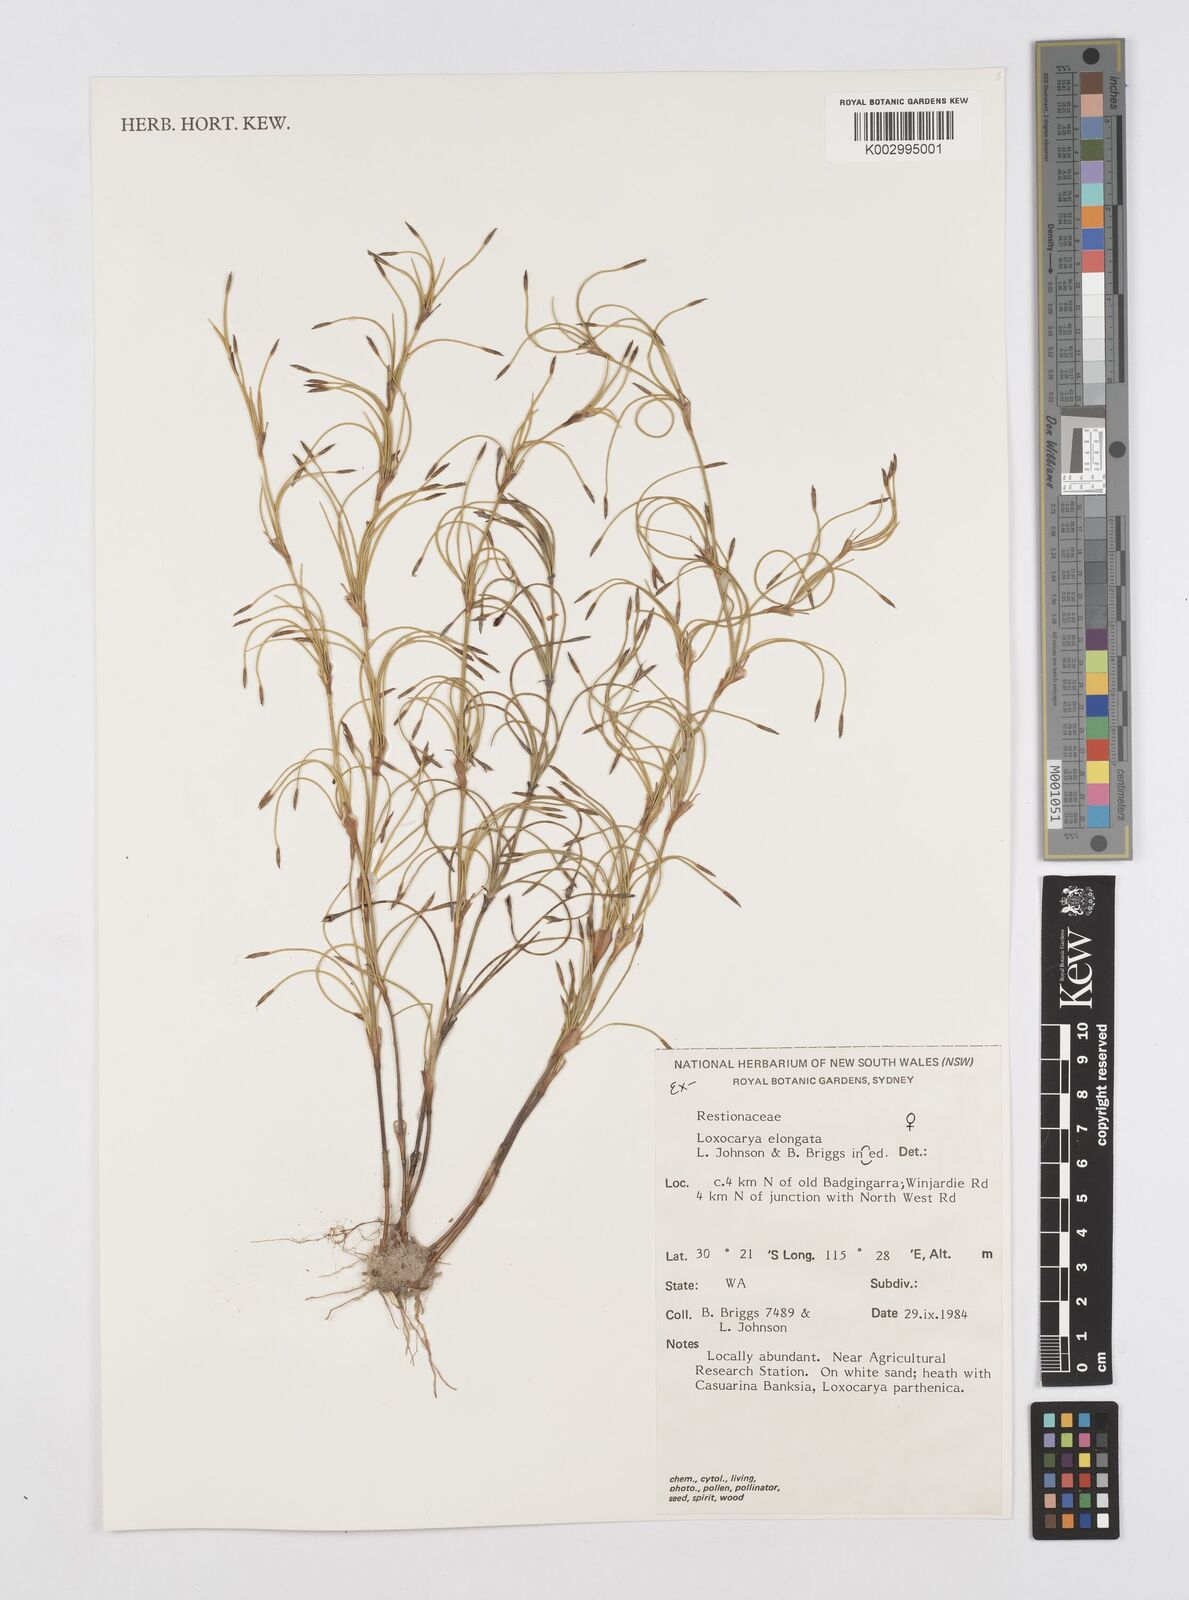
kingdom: Plantae
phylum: Tracheophyta
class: Liliopsida
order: Poales
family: Restionaceae
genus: Desmocladus
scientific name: Desmocladus elongatus
